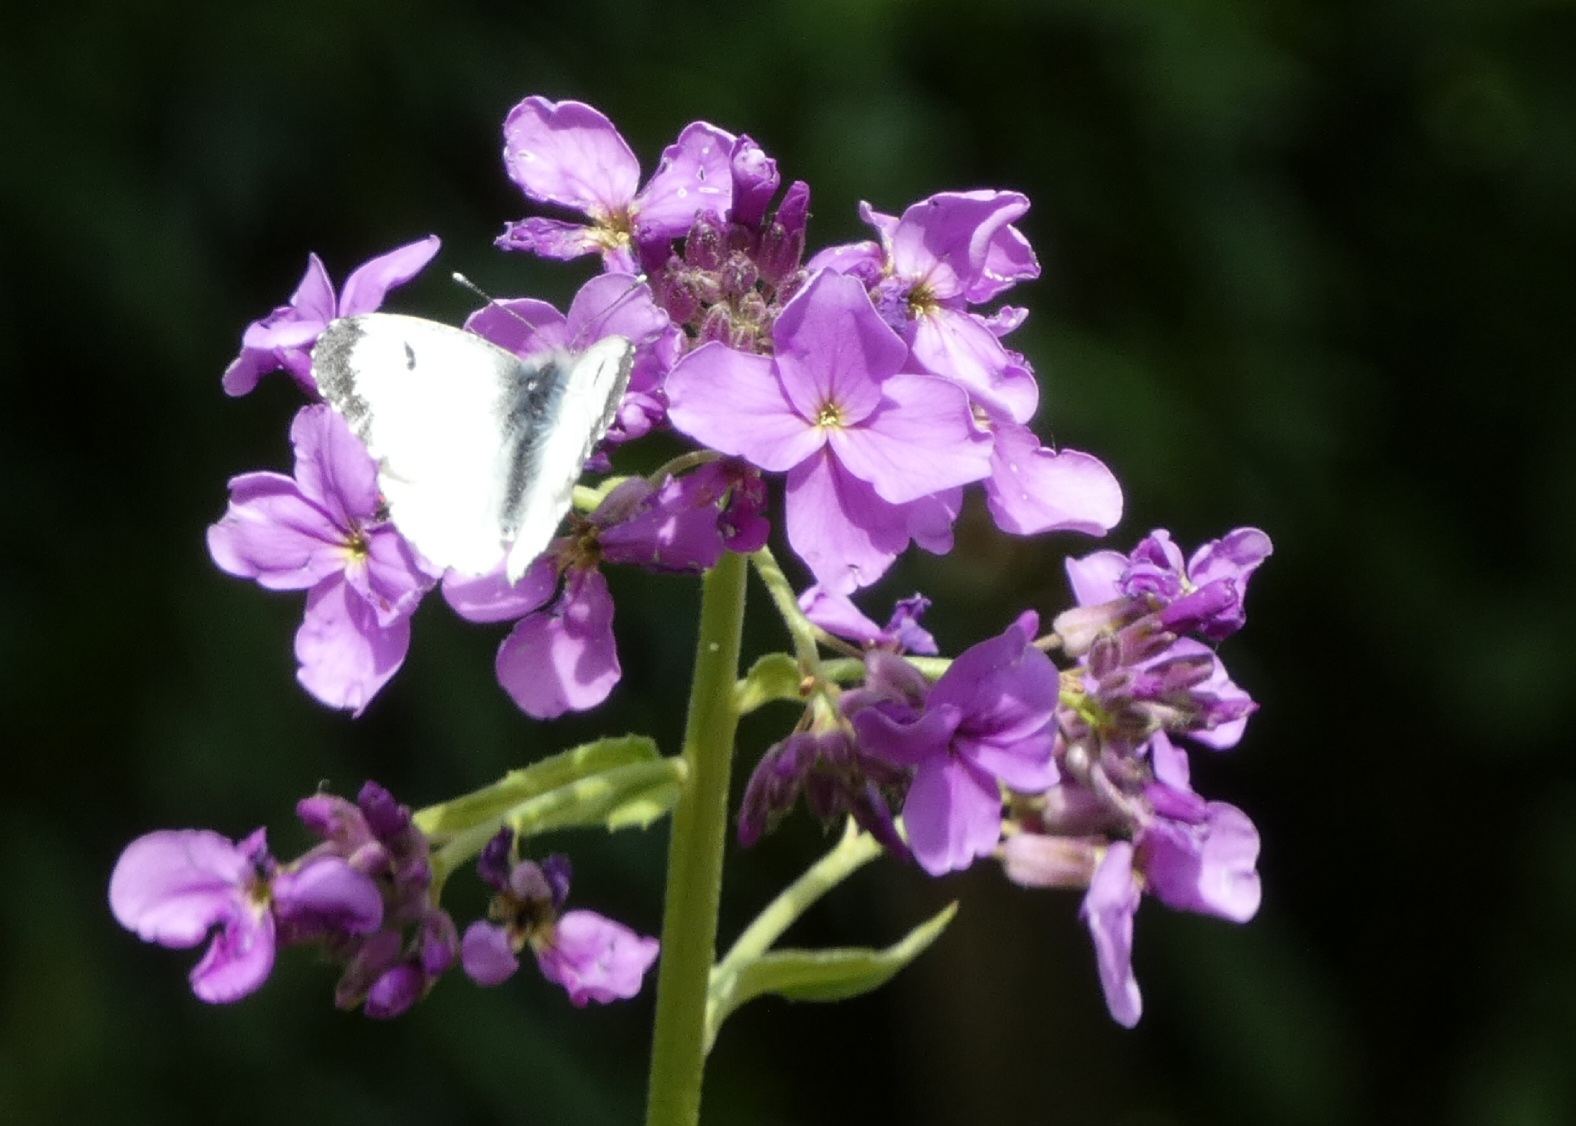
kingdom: Animalia
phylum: Arthropoda
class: Insecta
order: Lepidoptera
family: Pieridae
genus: Anthocharis
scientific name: Anthocharis cardamines
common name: Aurora
